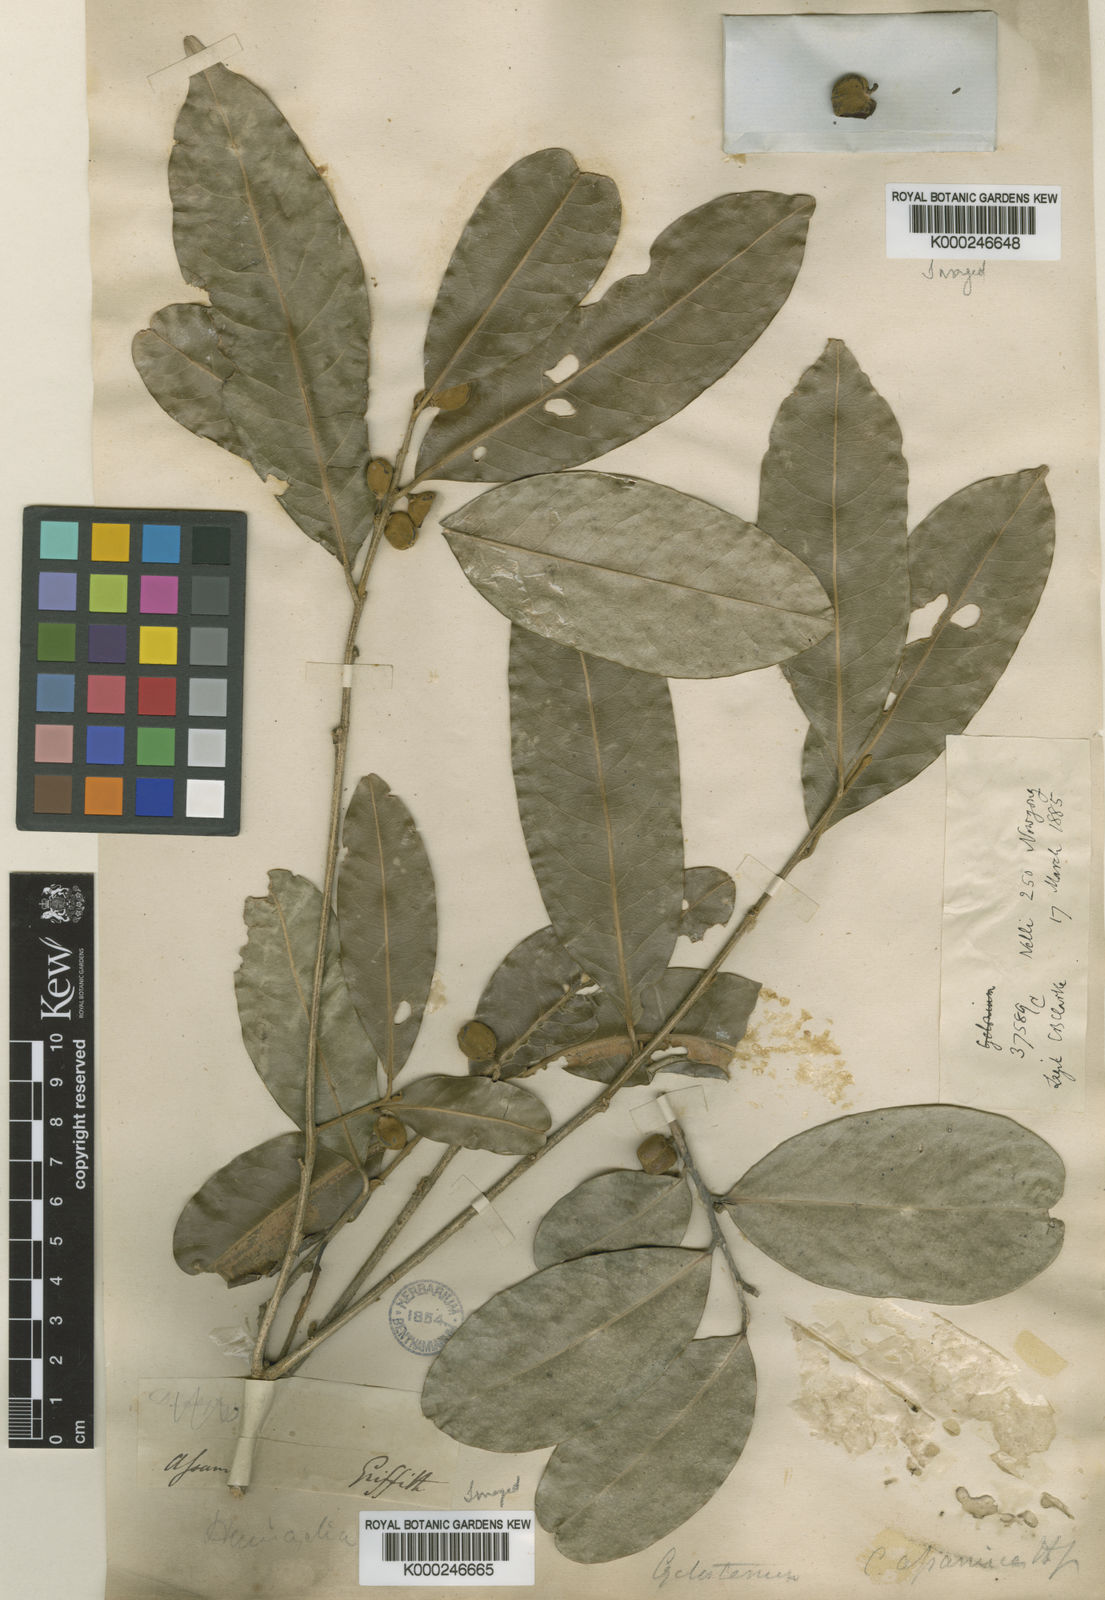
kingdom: Plantae
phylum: Tracheophyta
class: Magnoliopsida
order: Malpighiales
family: Putranjivaceae
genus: Drypetes
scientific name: Drypetes assamica
